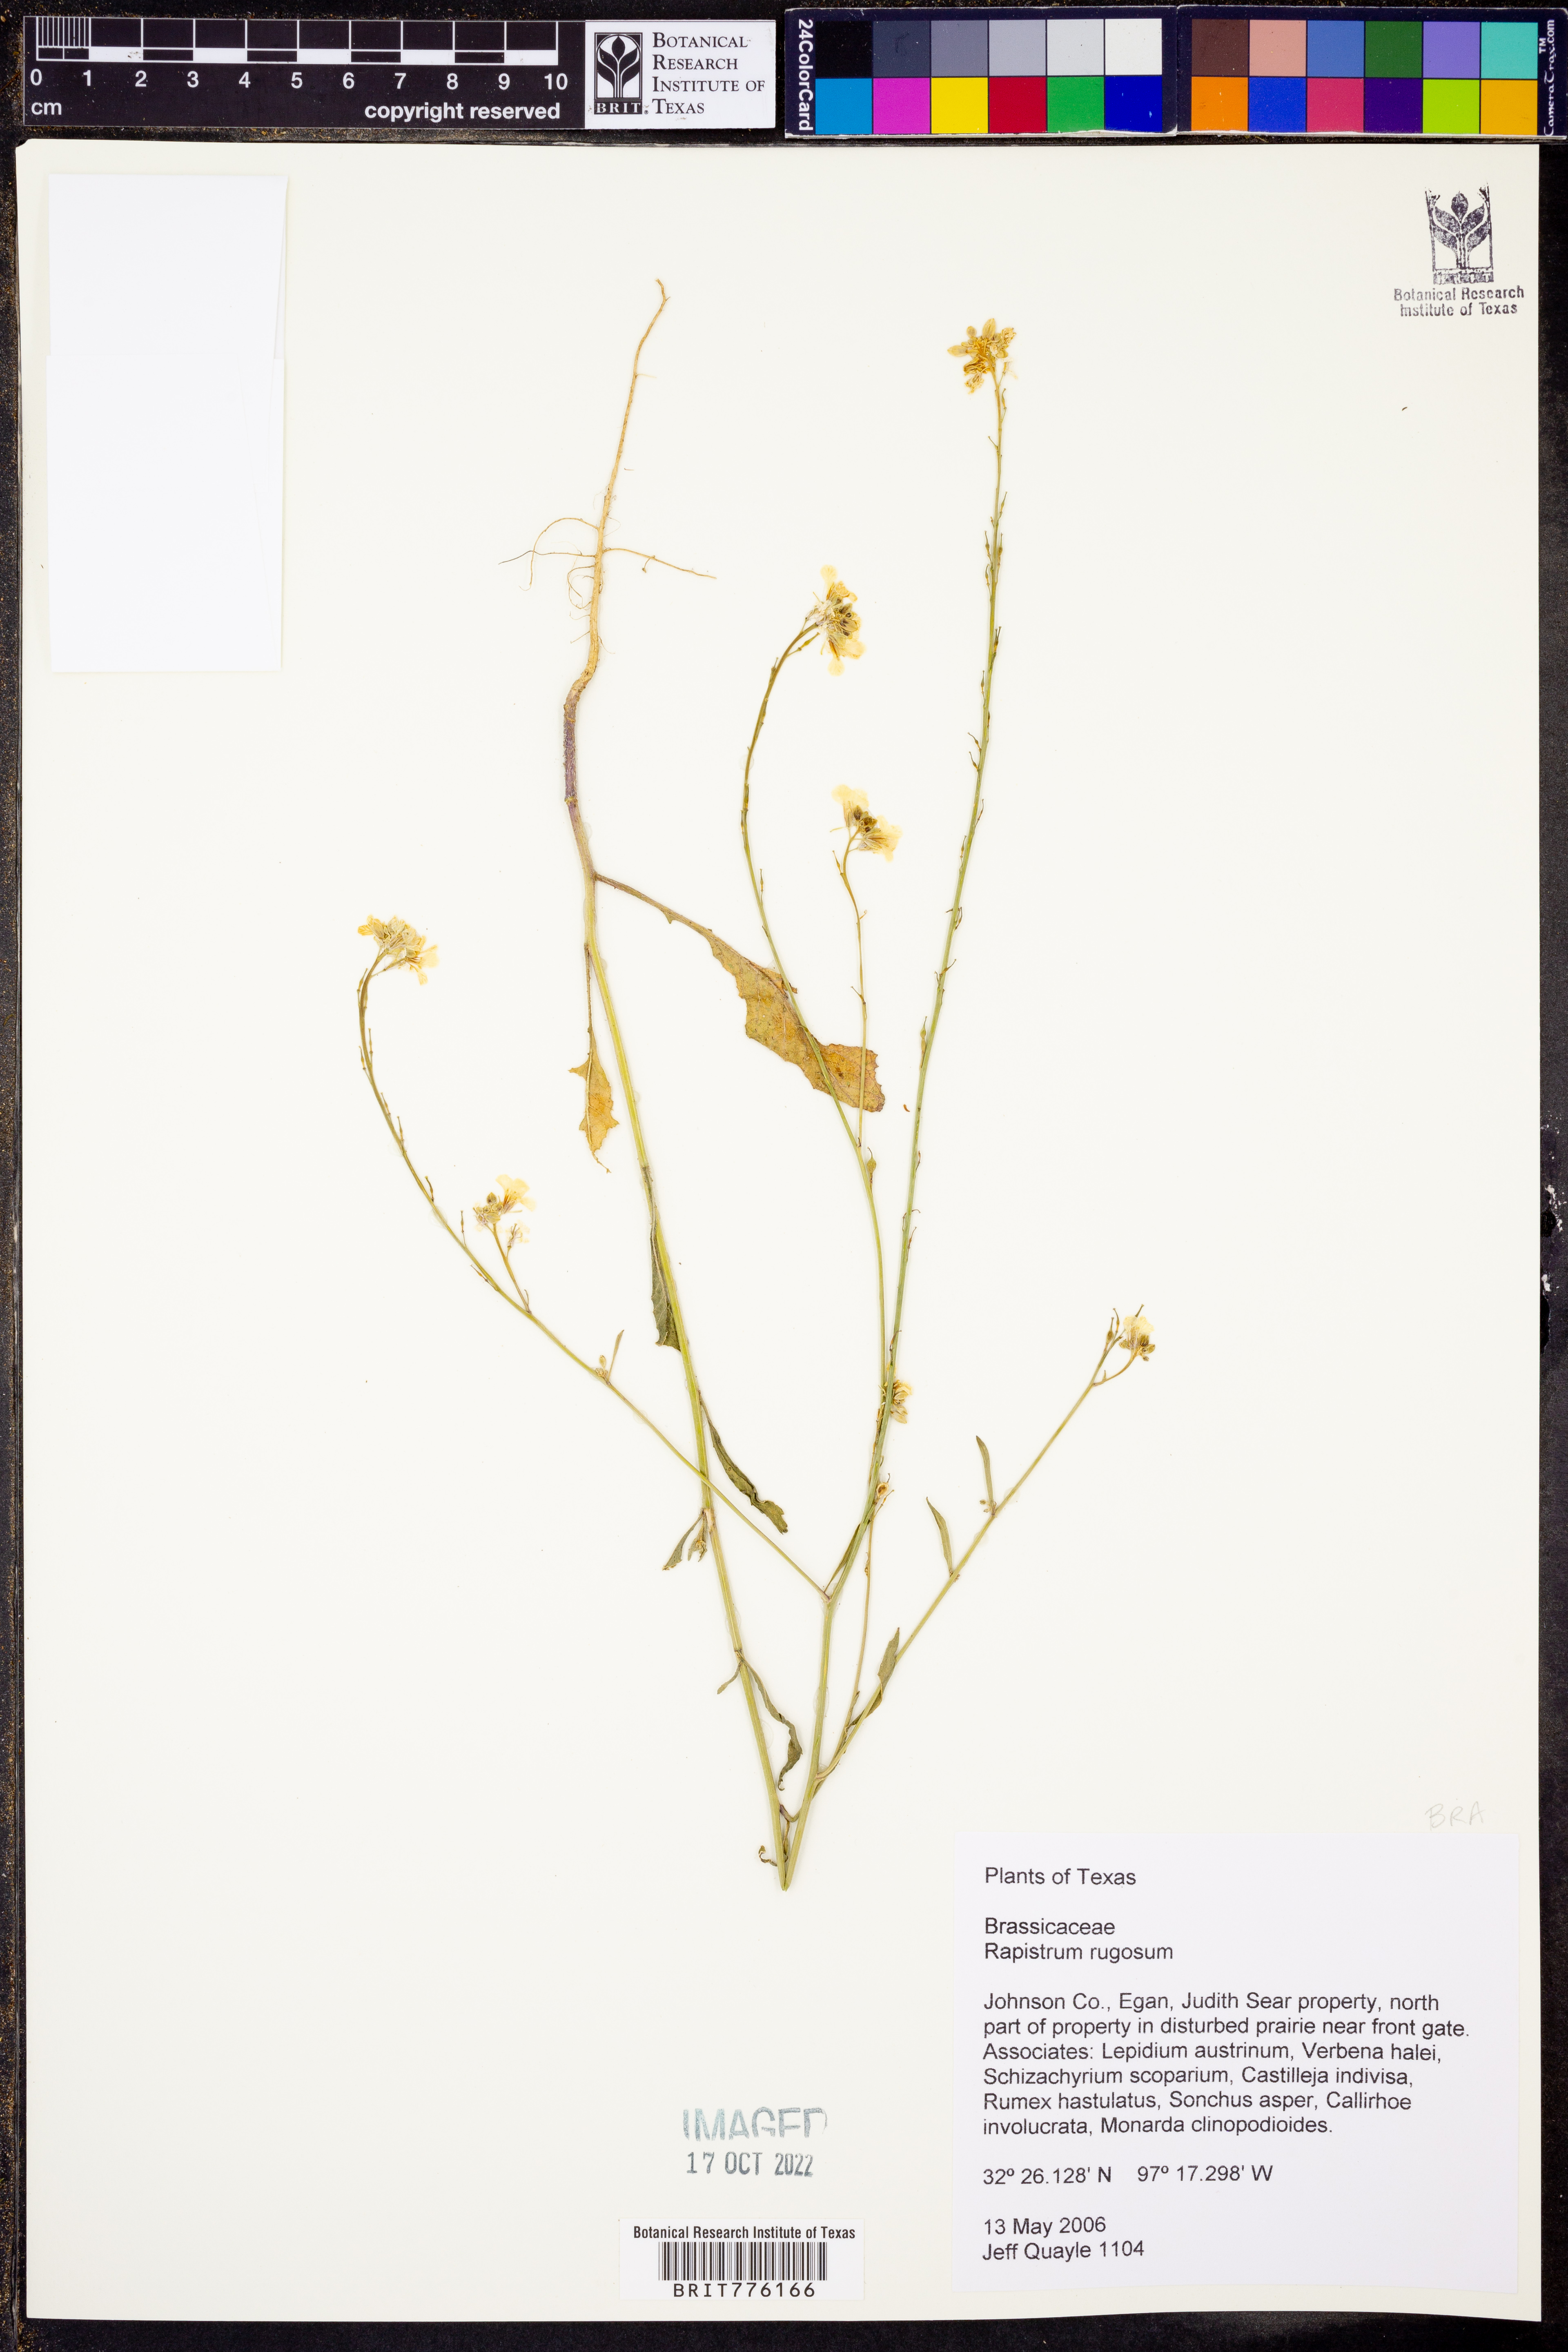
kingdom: Plantae
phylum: Tracheophyta
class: Magnoliopsida
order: Brassicales
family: Brassicaceae
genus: Rapistrum
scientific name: Rapistrum rugosum
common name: Annual bastardcabbage
